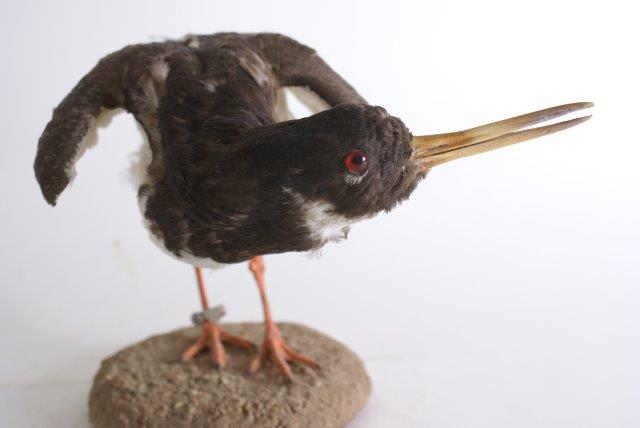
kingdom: Animalia
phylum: Chordata
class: Aves
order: Charadriiformes
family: Haematopodidae
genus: Haematopus
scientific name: Haematopus ostralegus
